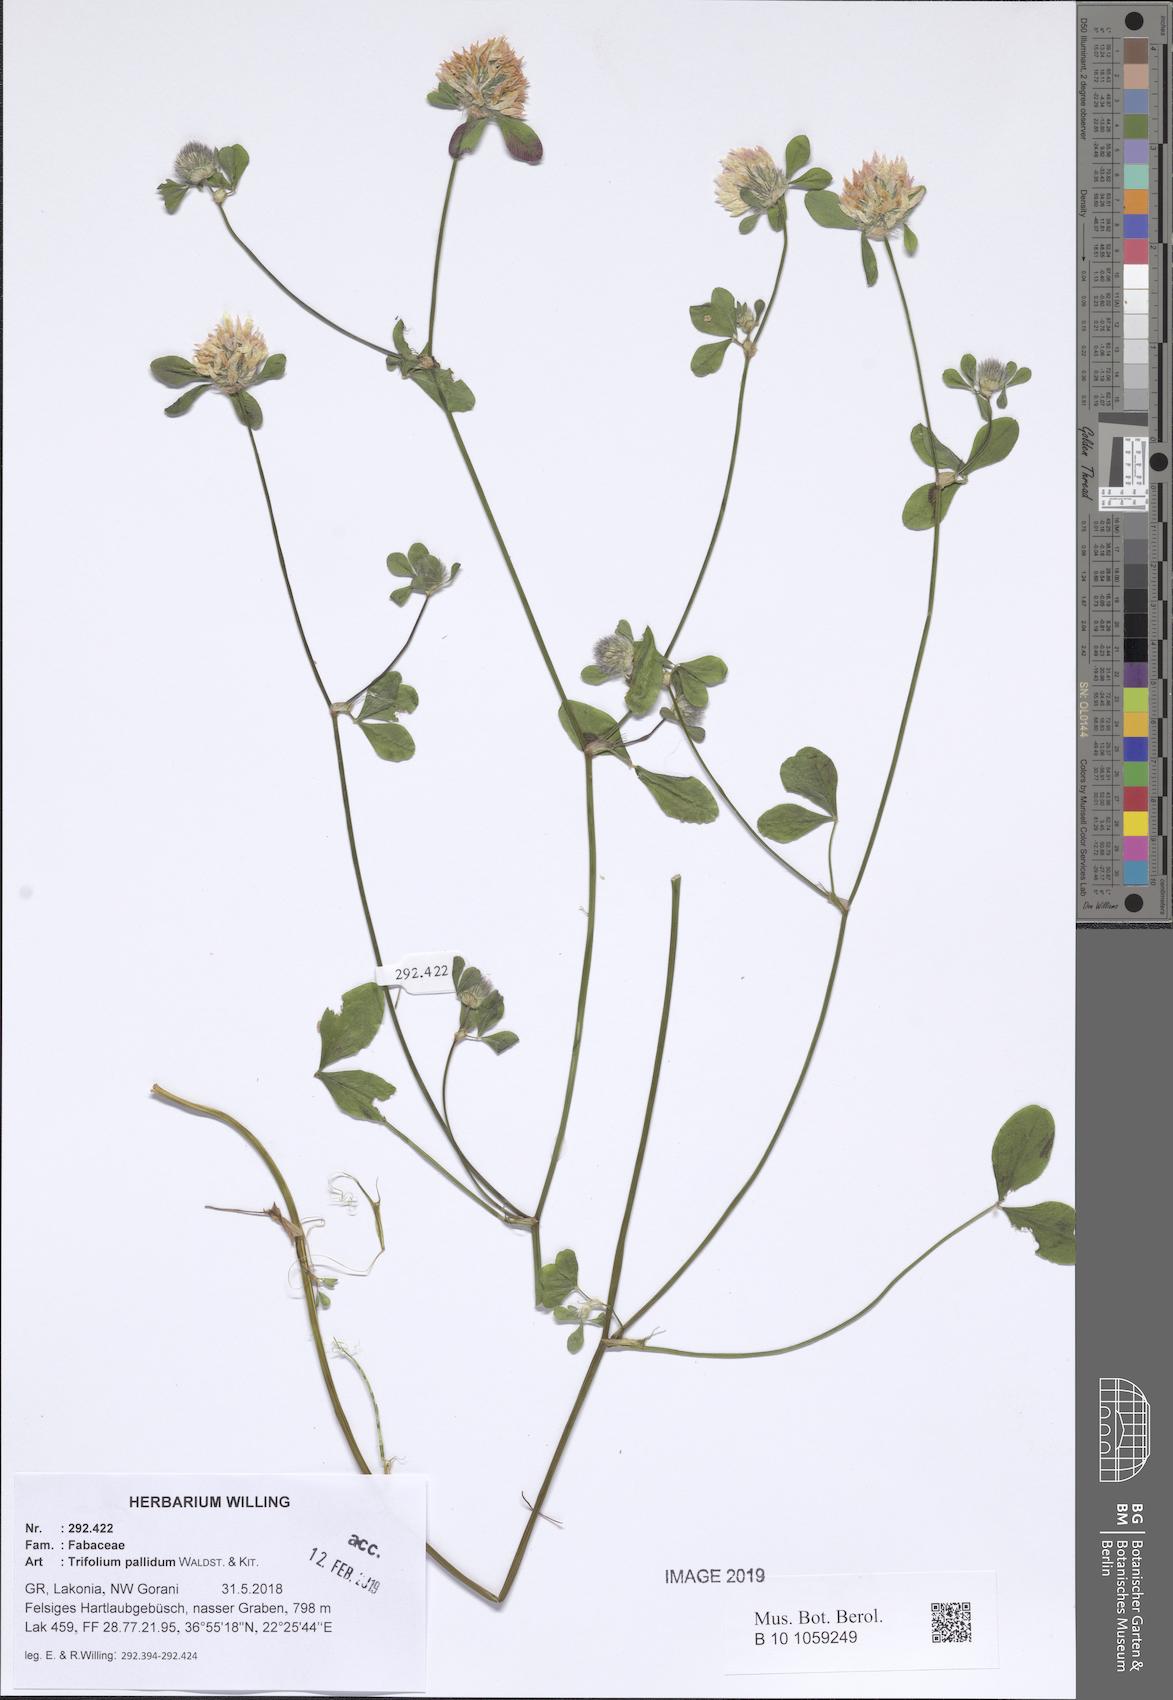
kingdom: Plantae
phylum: Tracheophyta
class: Magnoliopsida
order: Fabales
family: Fabaceae
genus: Trifolium
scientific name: Trifolium pallidum
